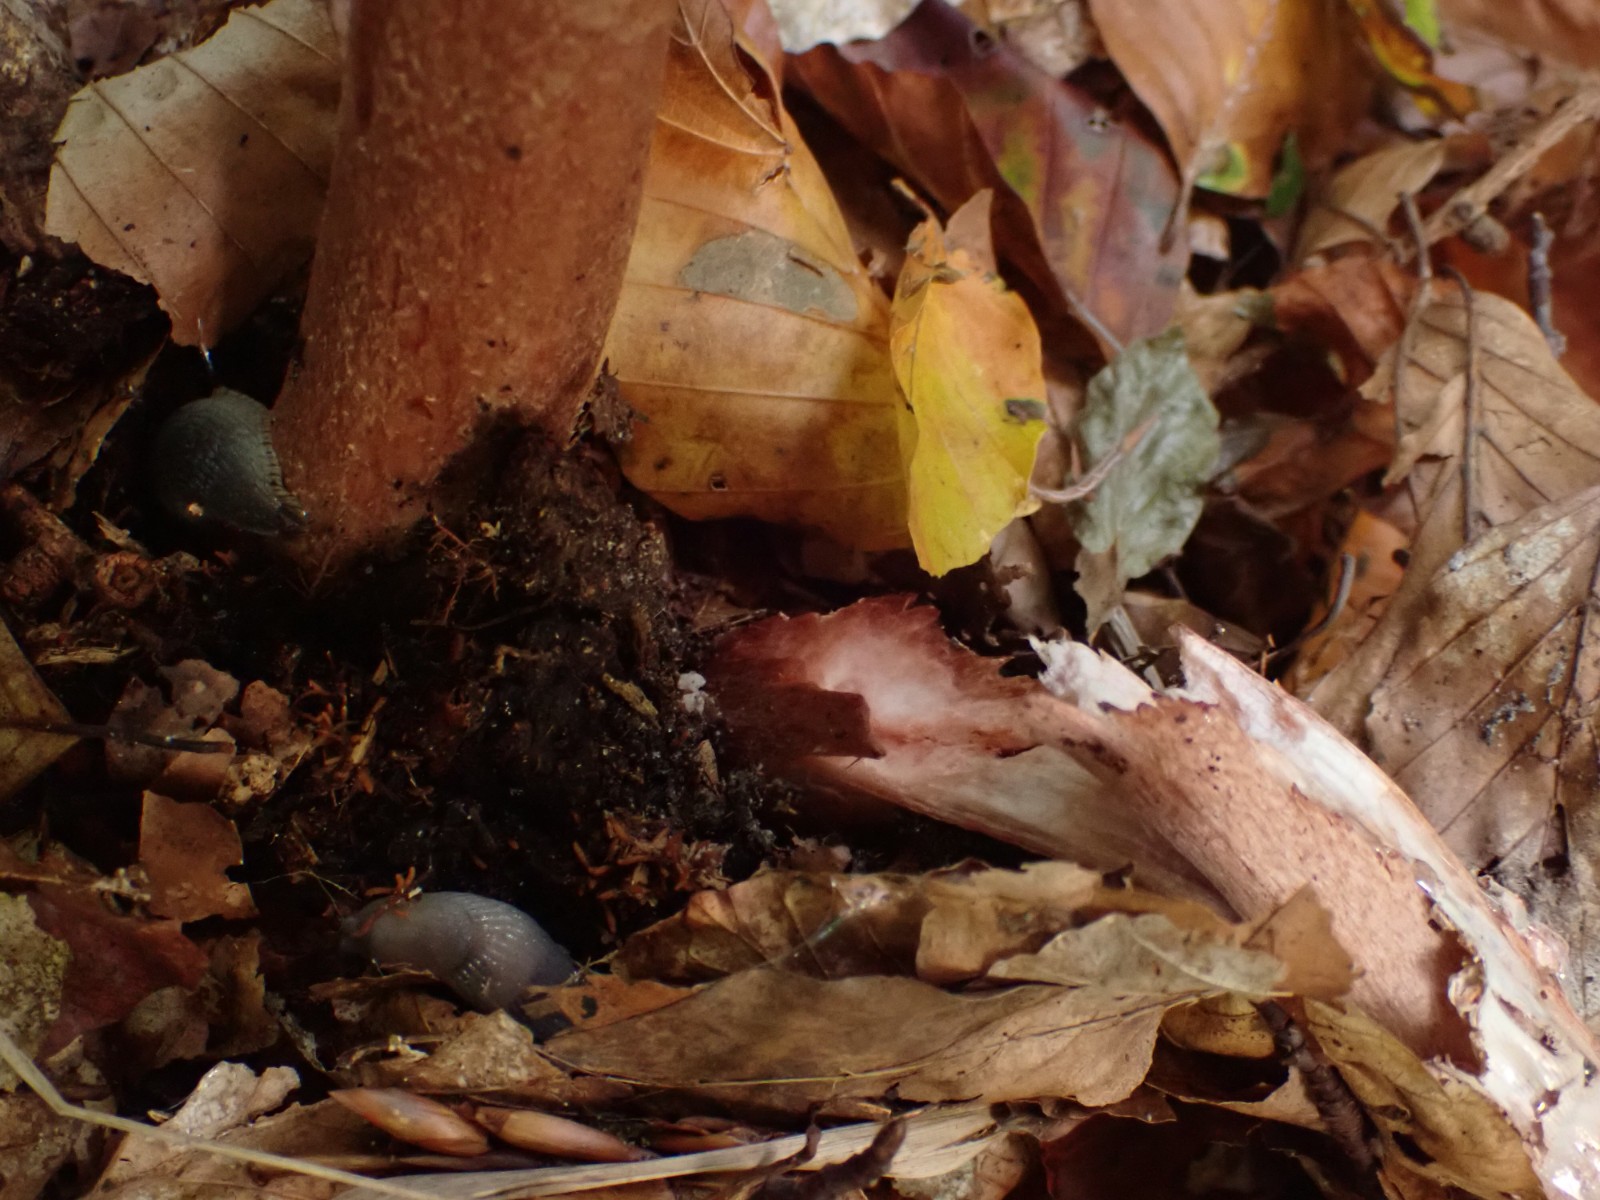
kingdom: Fungi
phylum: Basidiomycota
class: Agaricomycetes
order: Agaricales
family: Amanitaceae
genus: Amanita
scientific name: Amanita rubescens
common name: rødmende fluesvamp
